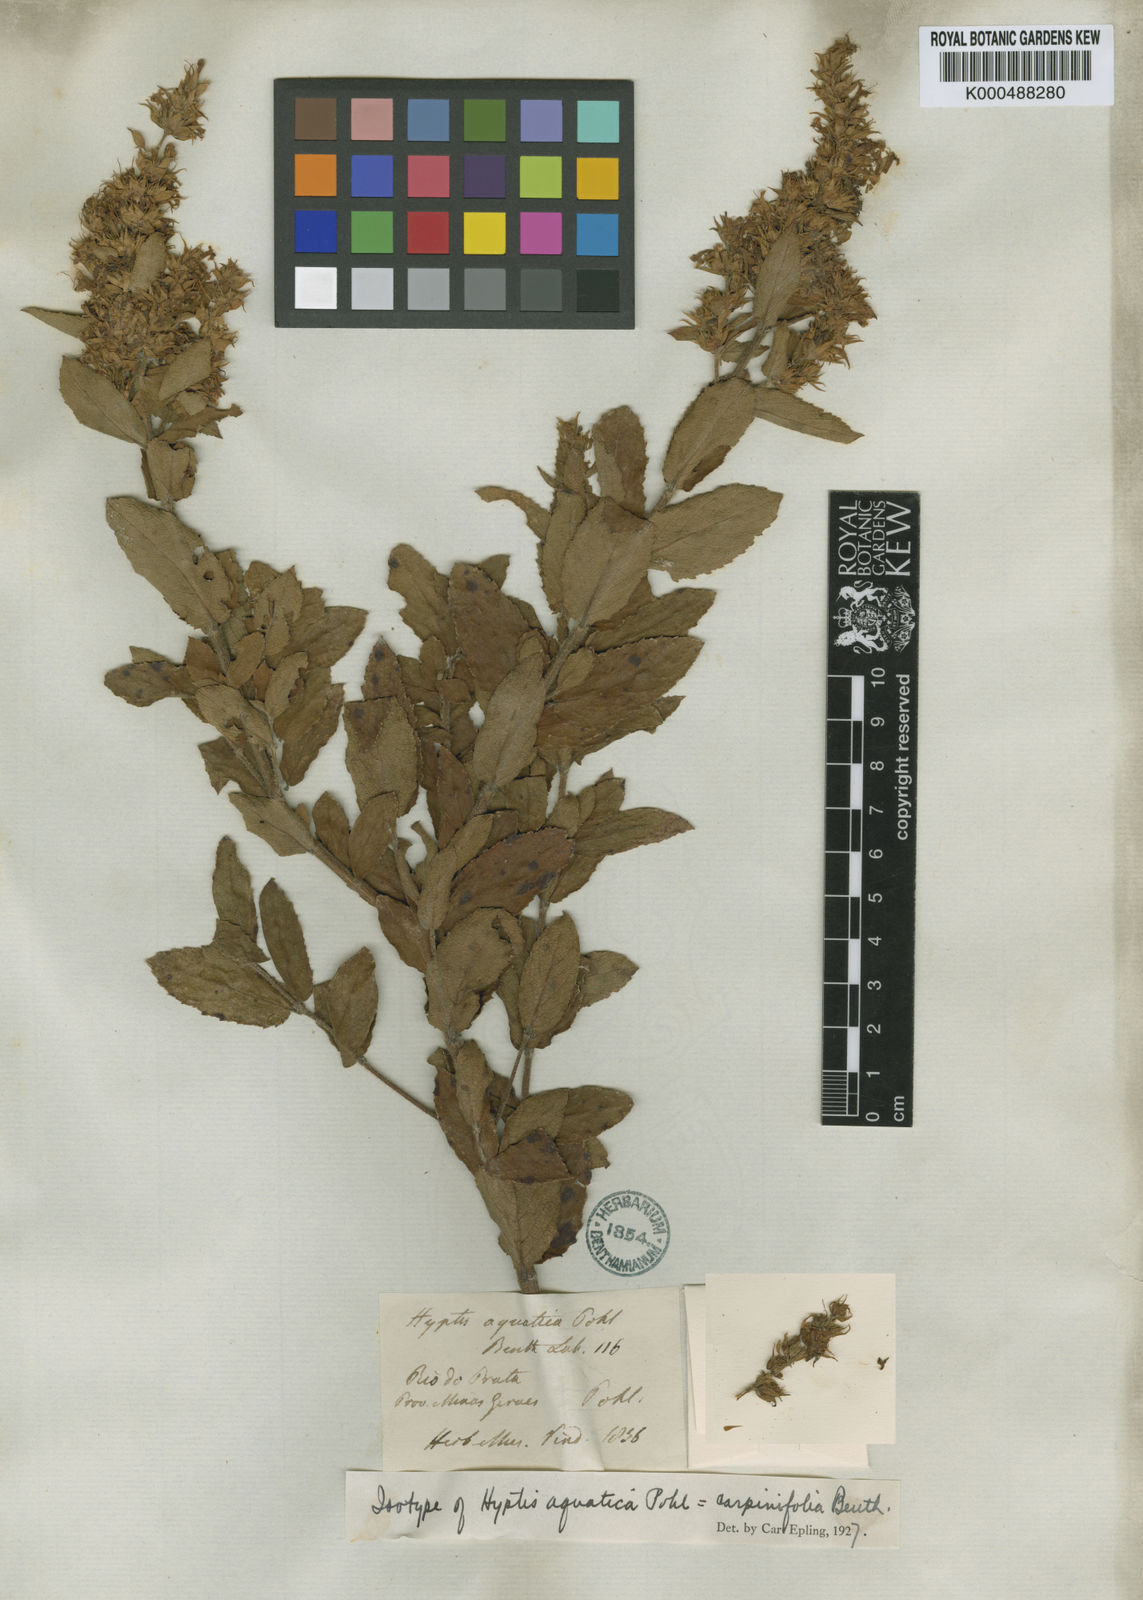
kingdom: Plantae
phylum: Tracheophyta
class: Magnoliopsida
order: Lamiales
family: Lamiaceae
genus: Cantinoa
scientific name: Cantinoa carpinifolia
